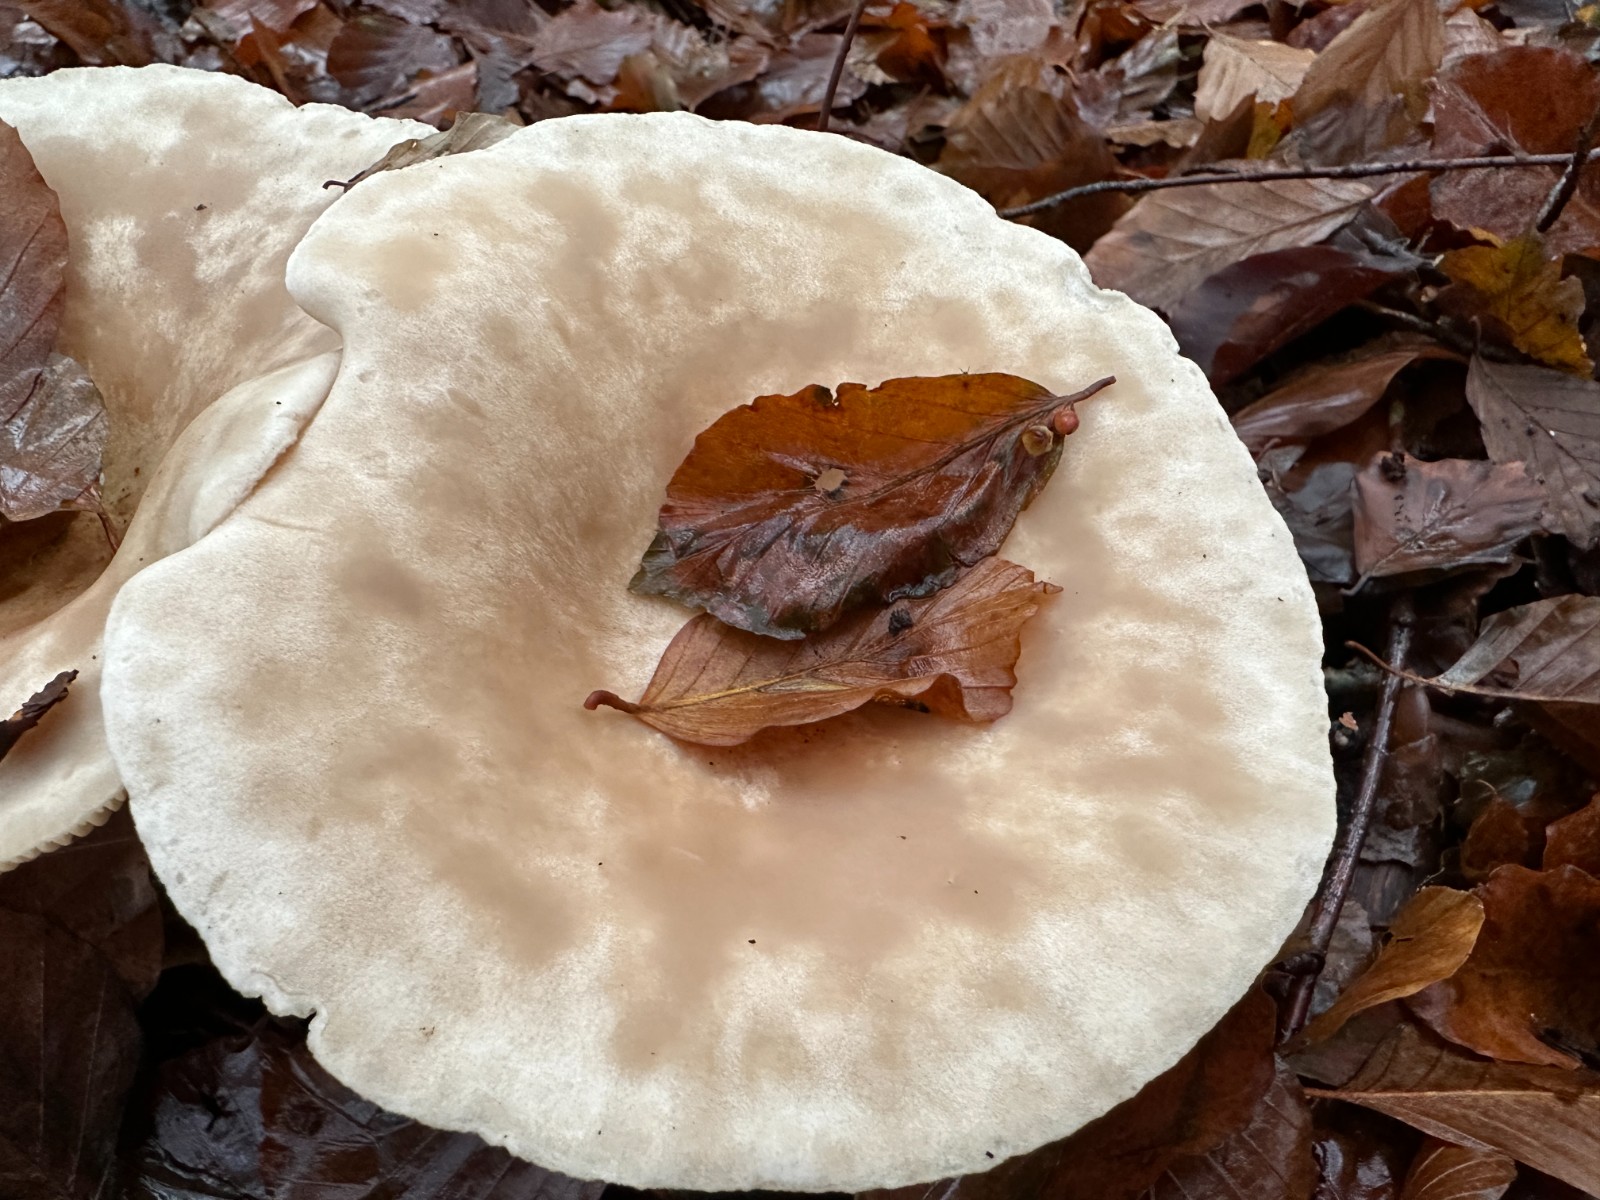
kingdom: Fungi
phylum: Basidiomycota
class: Agaricomycetes
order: Agaricales
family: Tricholomataceae
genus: Infundibulicybe
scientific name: Infundibulicybe geotropa
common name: stor tragthat
